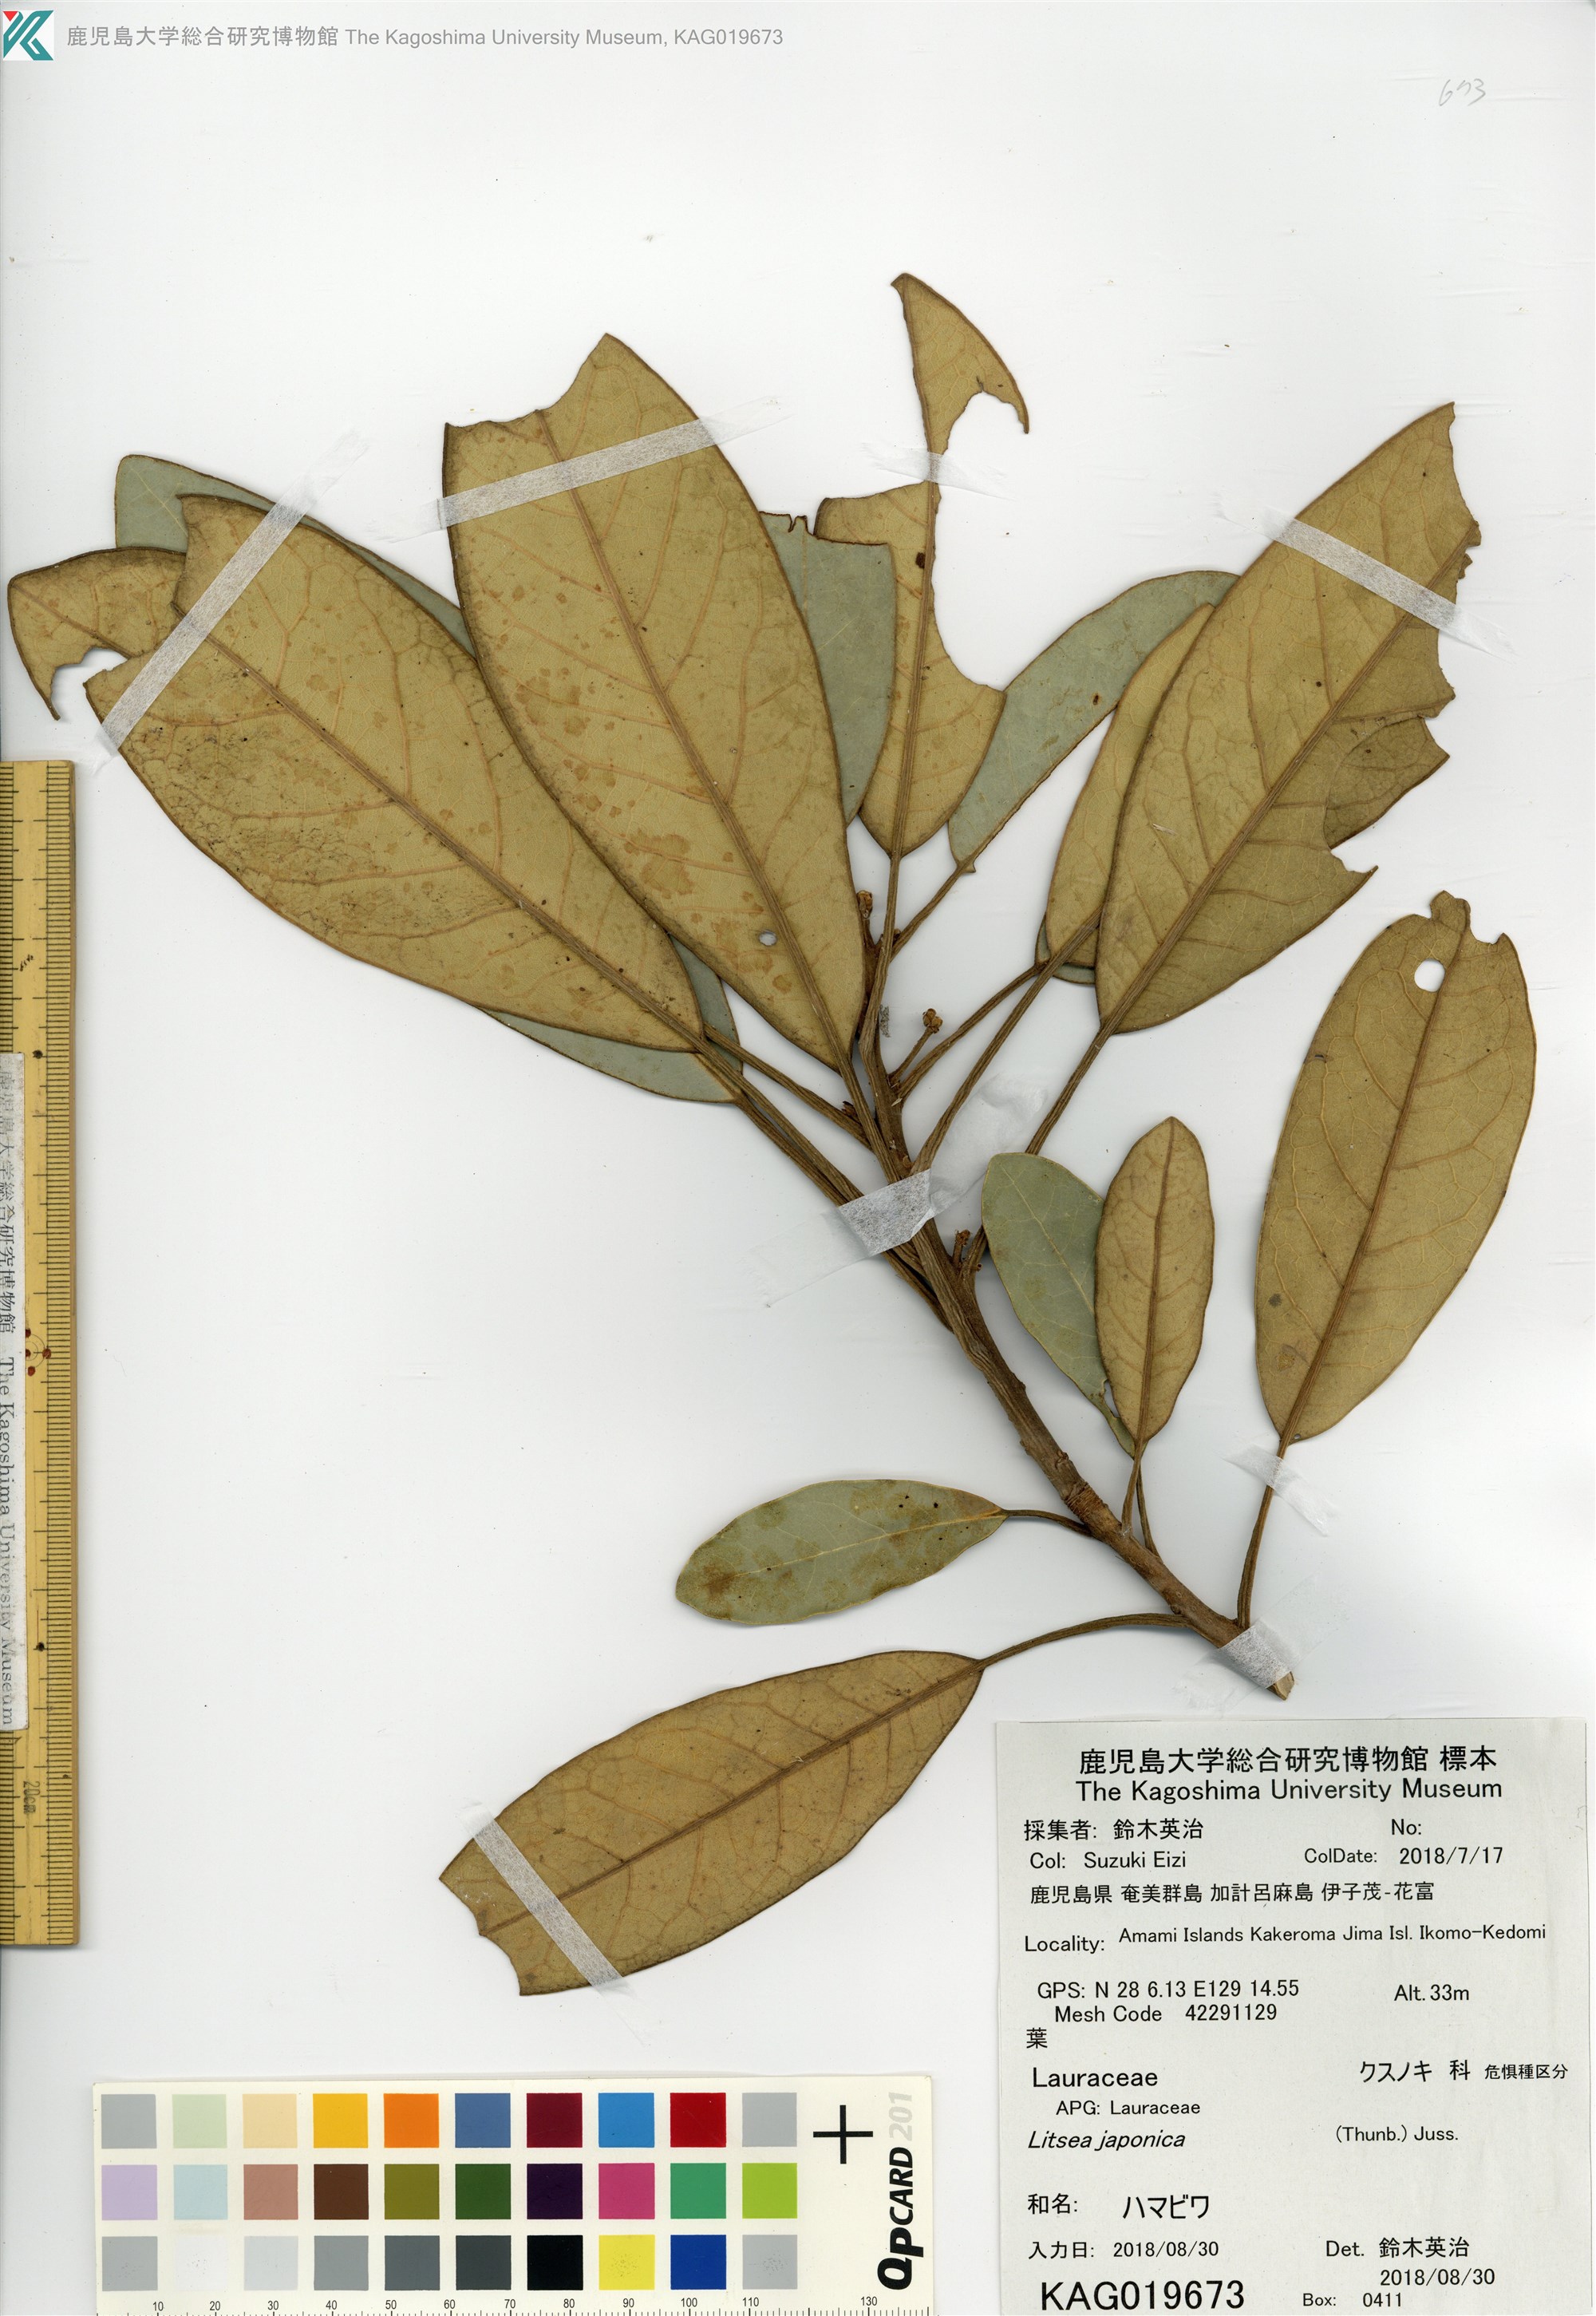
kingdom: Plantae
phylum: Tracheophyta
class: Magnoliopsida
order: Laurales
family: Lauraceae
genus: Litsea
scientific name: Litsea japonica
